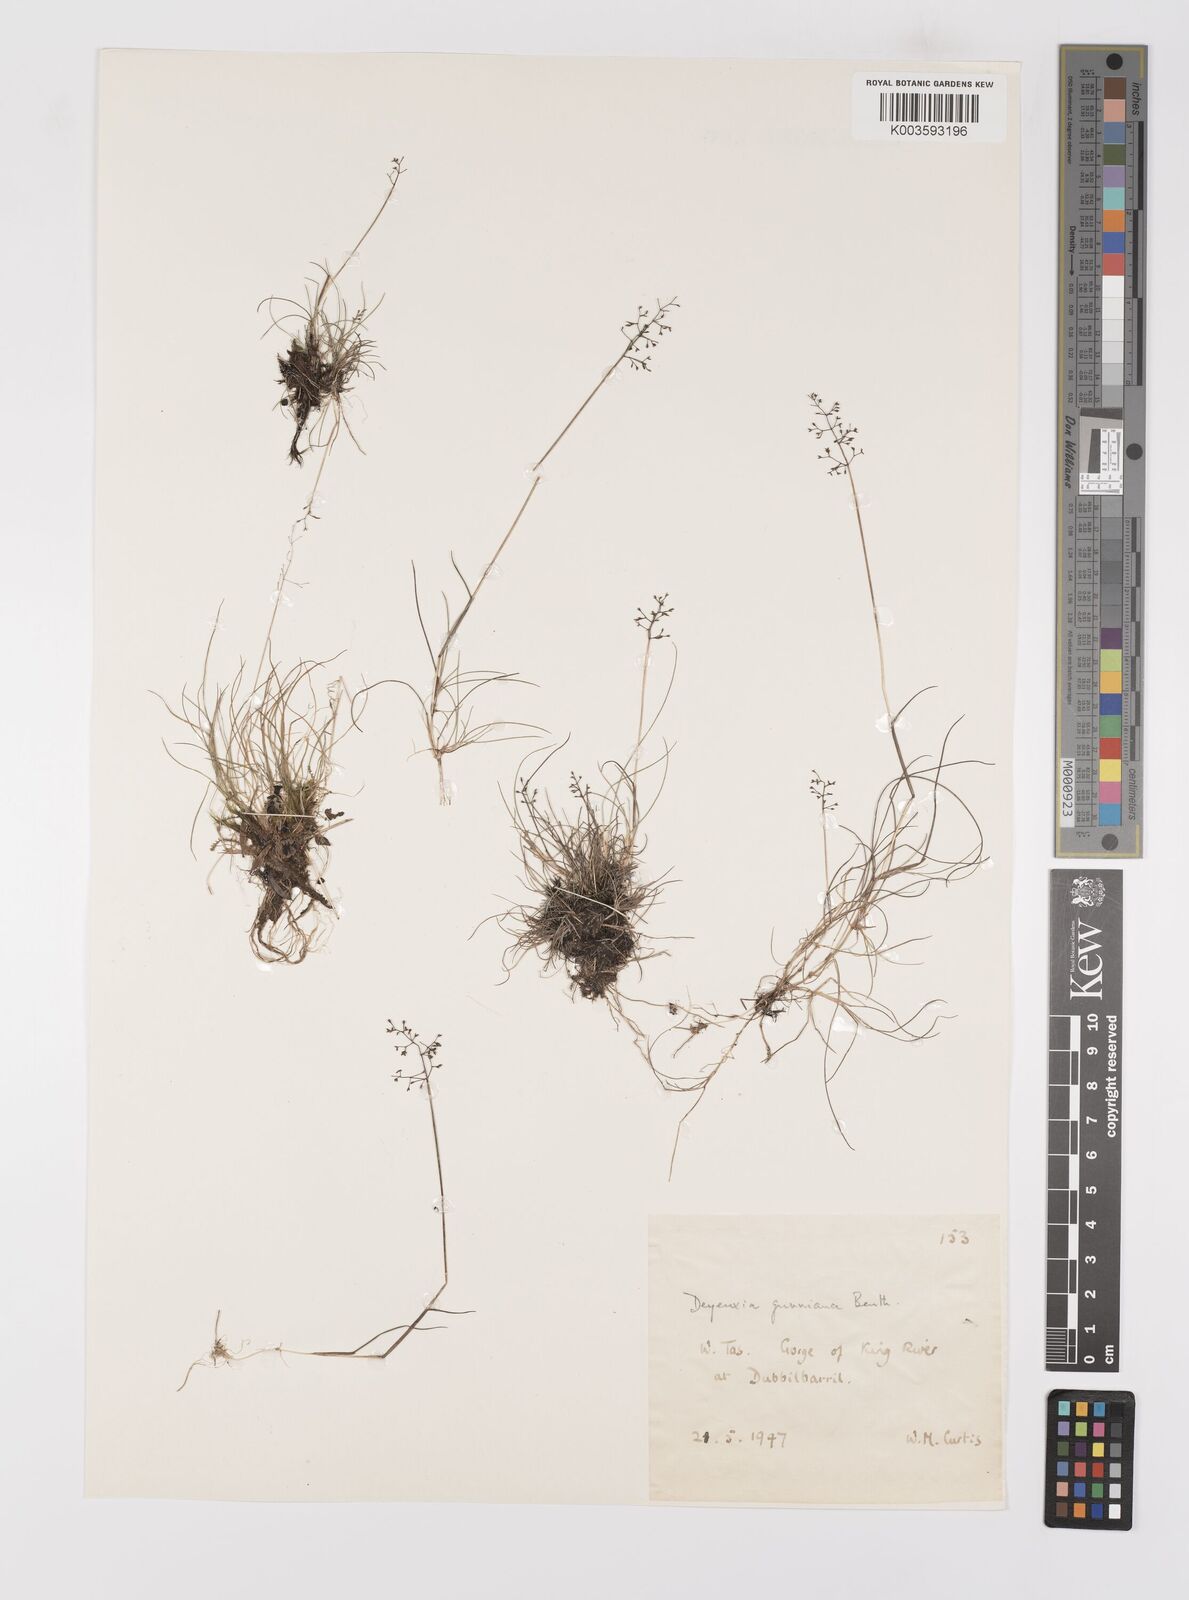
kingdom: Plantae
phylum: Tracheophyta
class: Liliopsida
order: Poales
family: Poaceae
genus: Ancistragrostis
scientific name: Ancistragrostis
